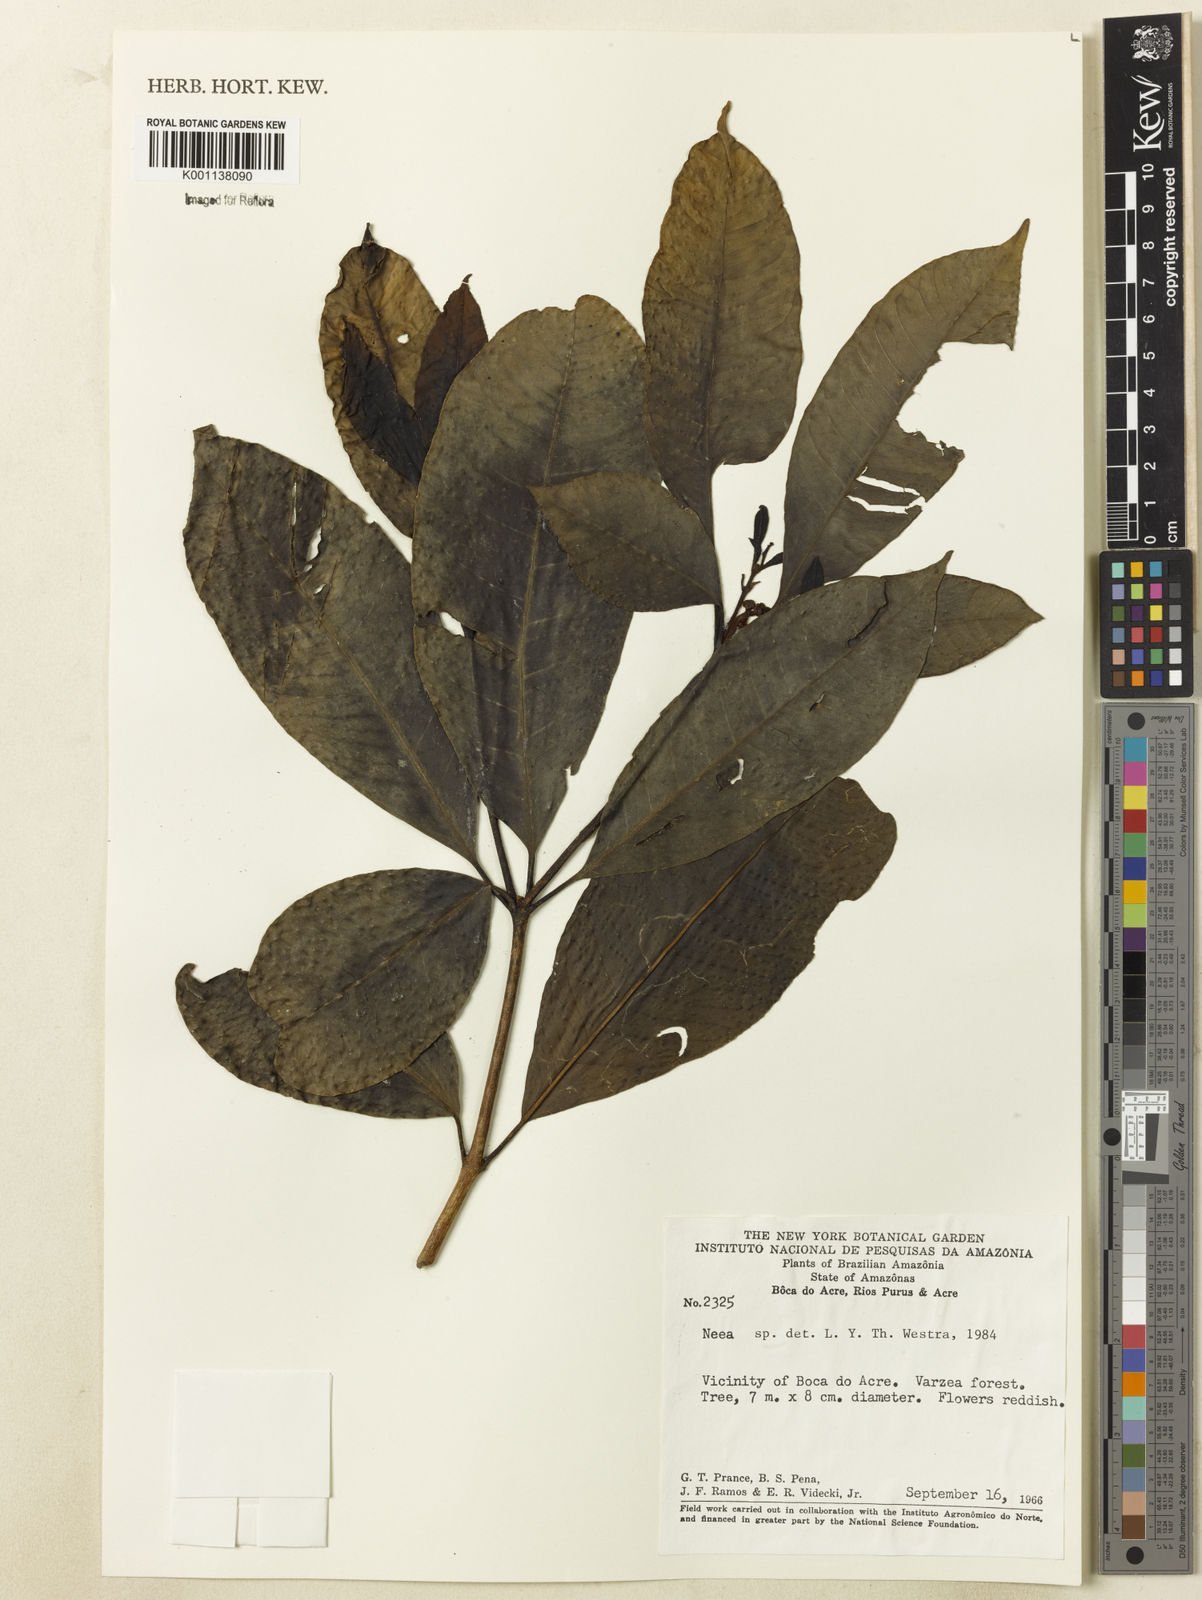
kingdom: Plantae
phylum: Tracheophyta
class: Magnoliopsida
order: Caryophyllales
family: Nyctaginaceae
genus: Neea
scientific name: Neea
